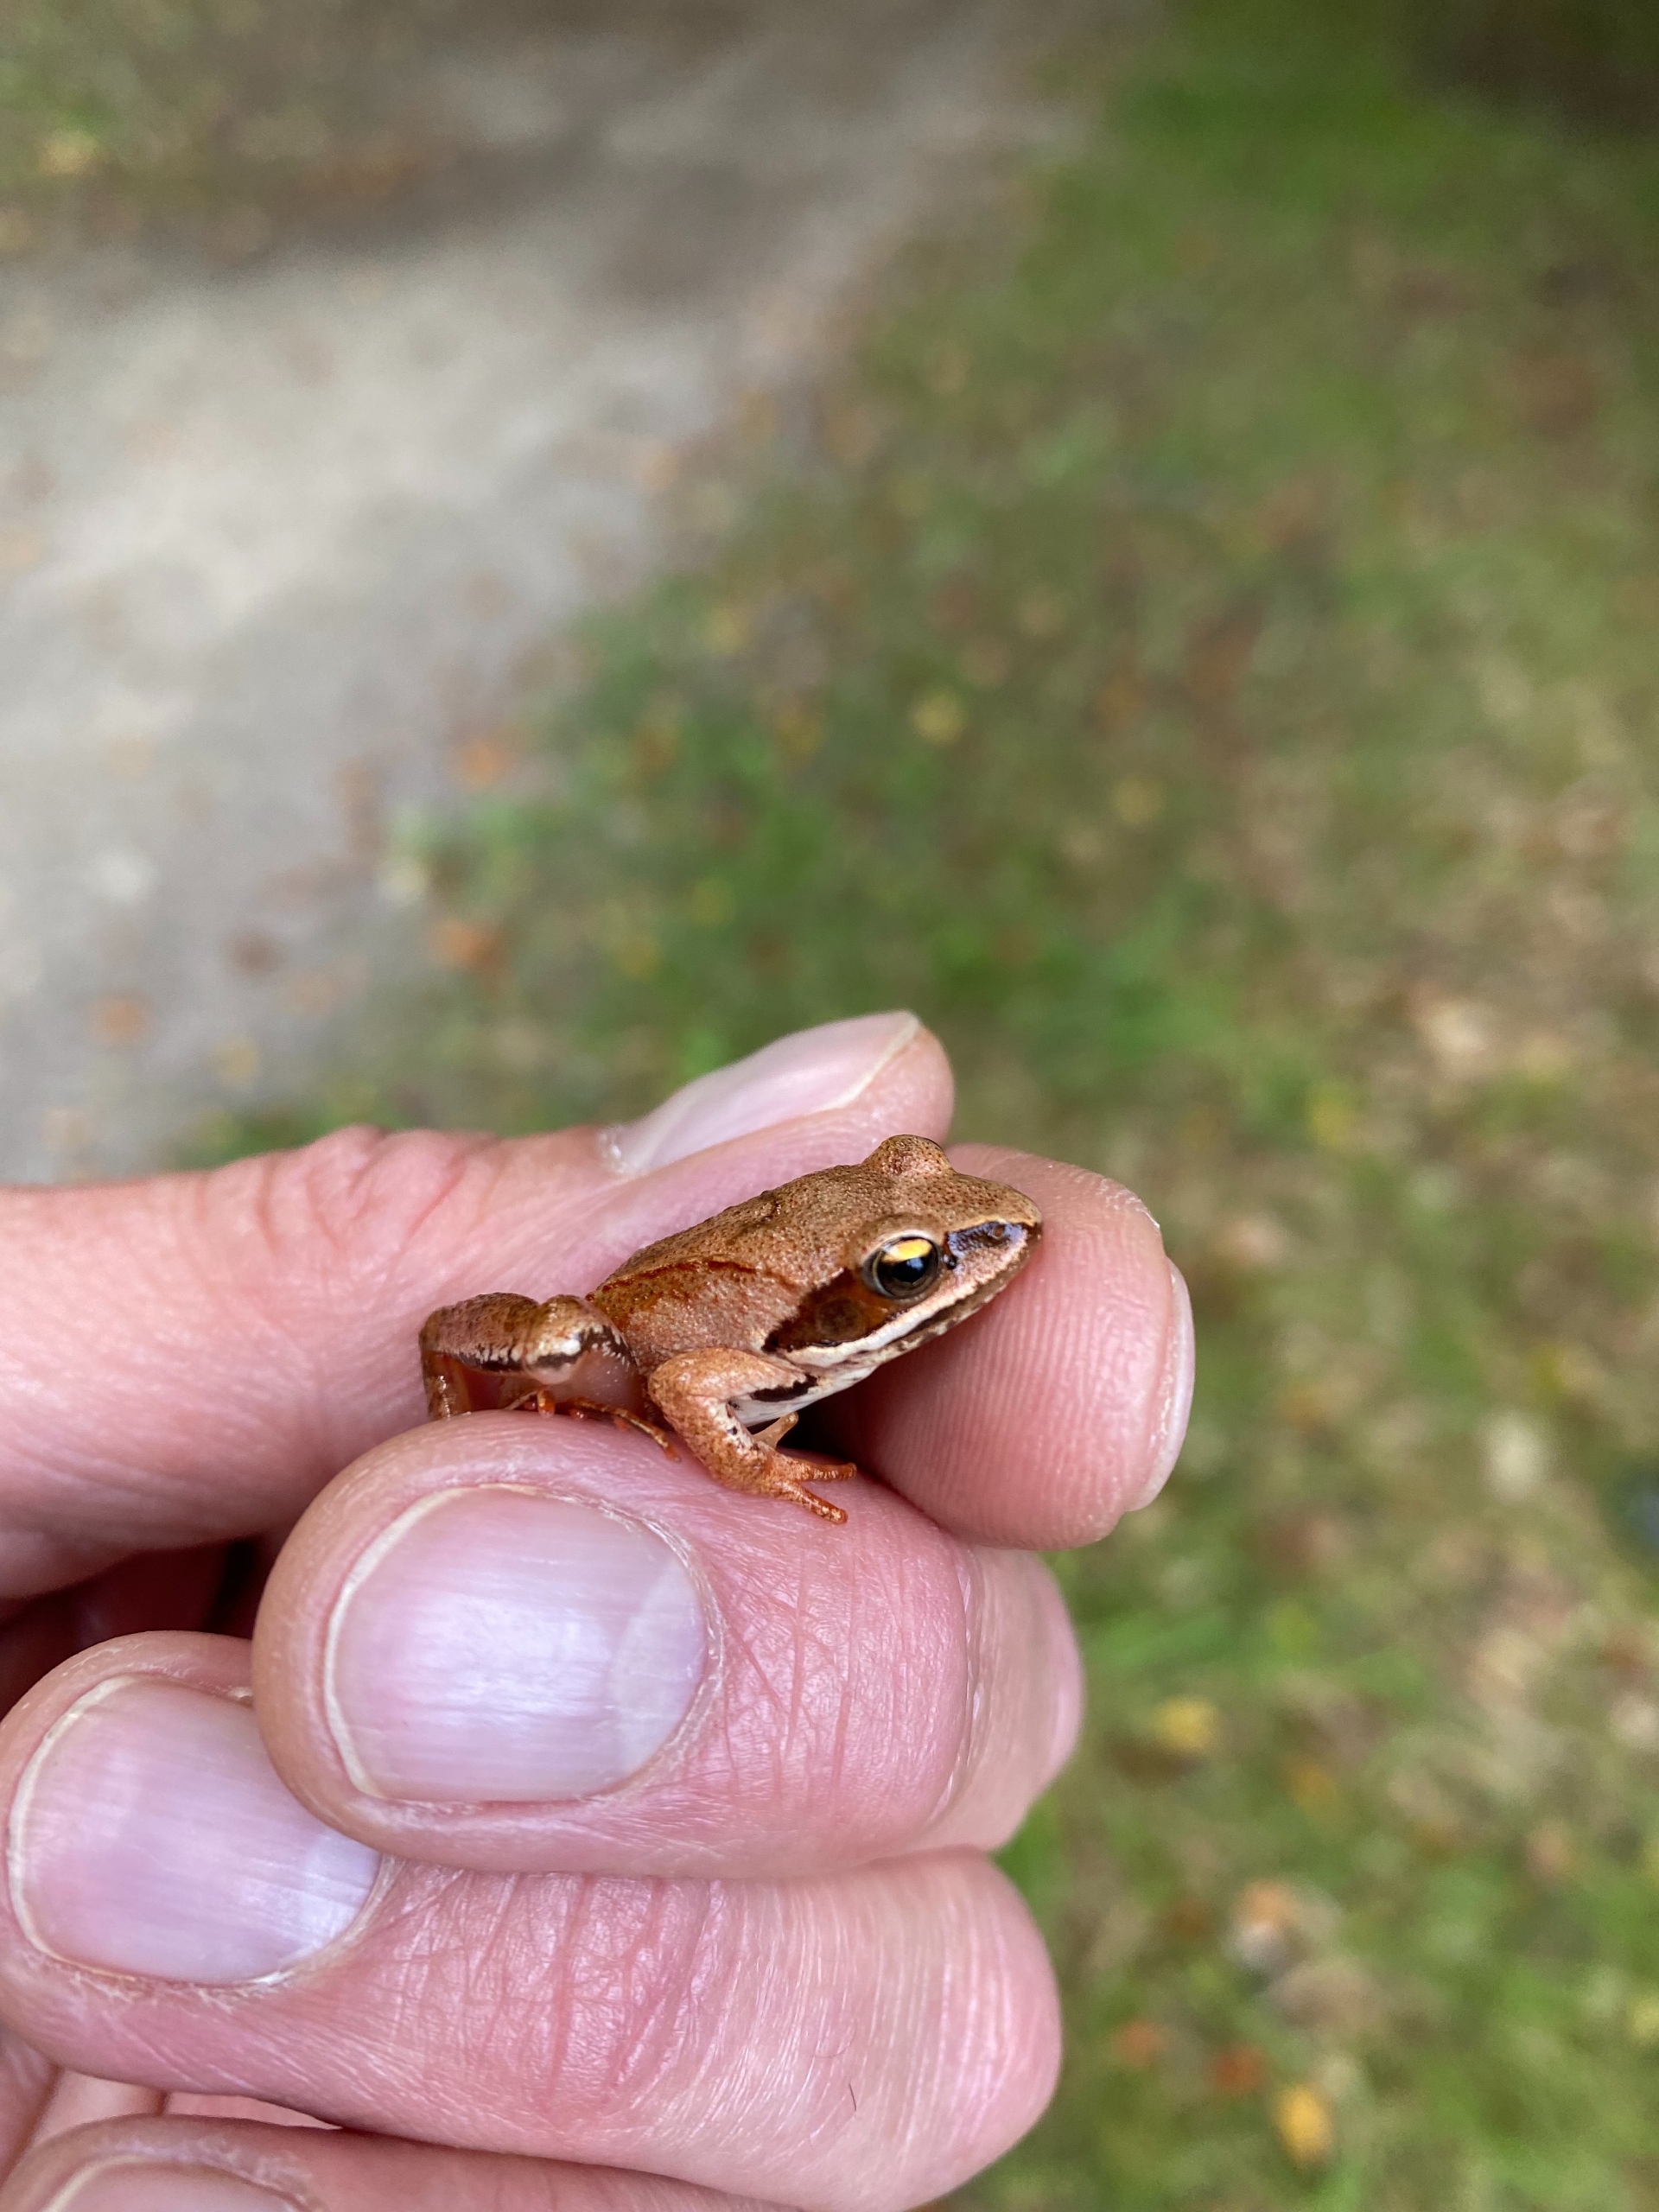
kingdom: Animalia
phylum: Chordata
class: Amphibia
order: Anura
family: Ranidae
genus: Rana
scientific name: Rana dalmatina
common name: Springfrø
